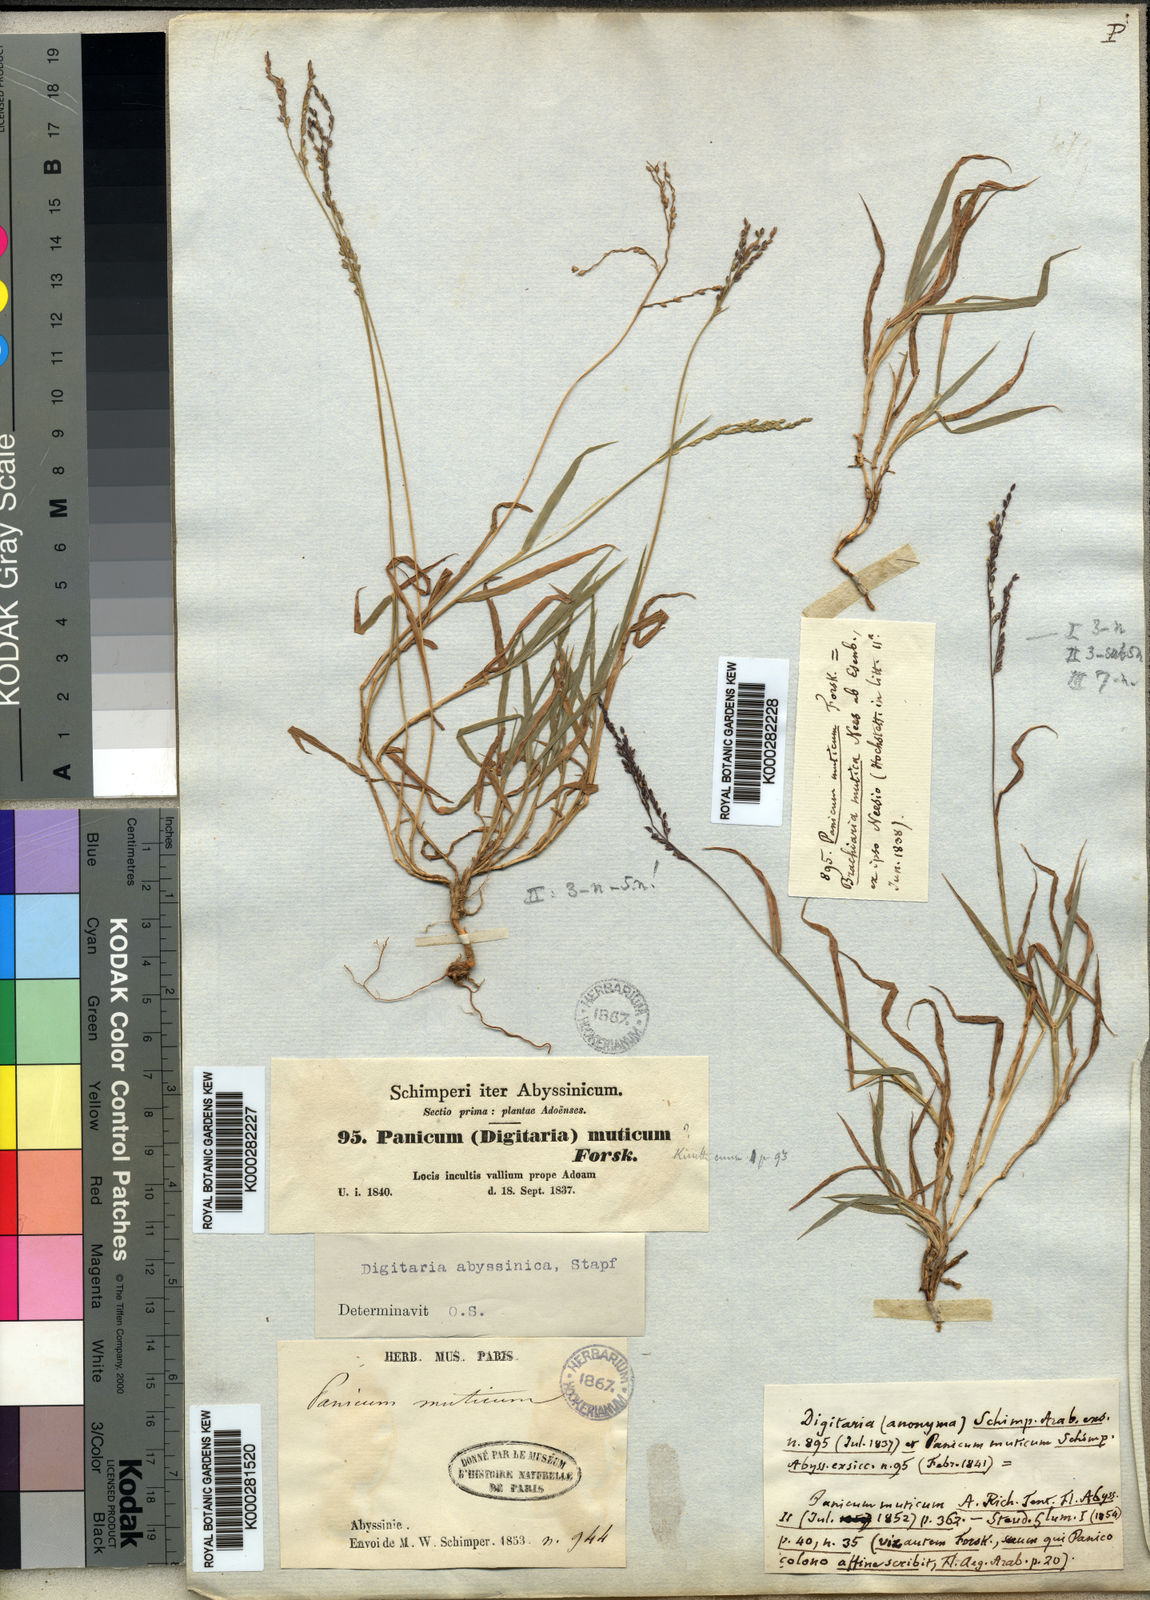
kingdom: Plantae
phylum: Tracheophyta
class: Liliopsida
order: Poales
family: Poaceae
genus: Digitaria
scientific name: Digitaria abyssinica
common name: African couchgrass
